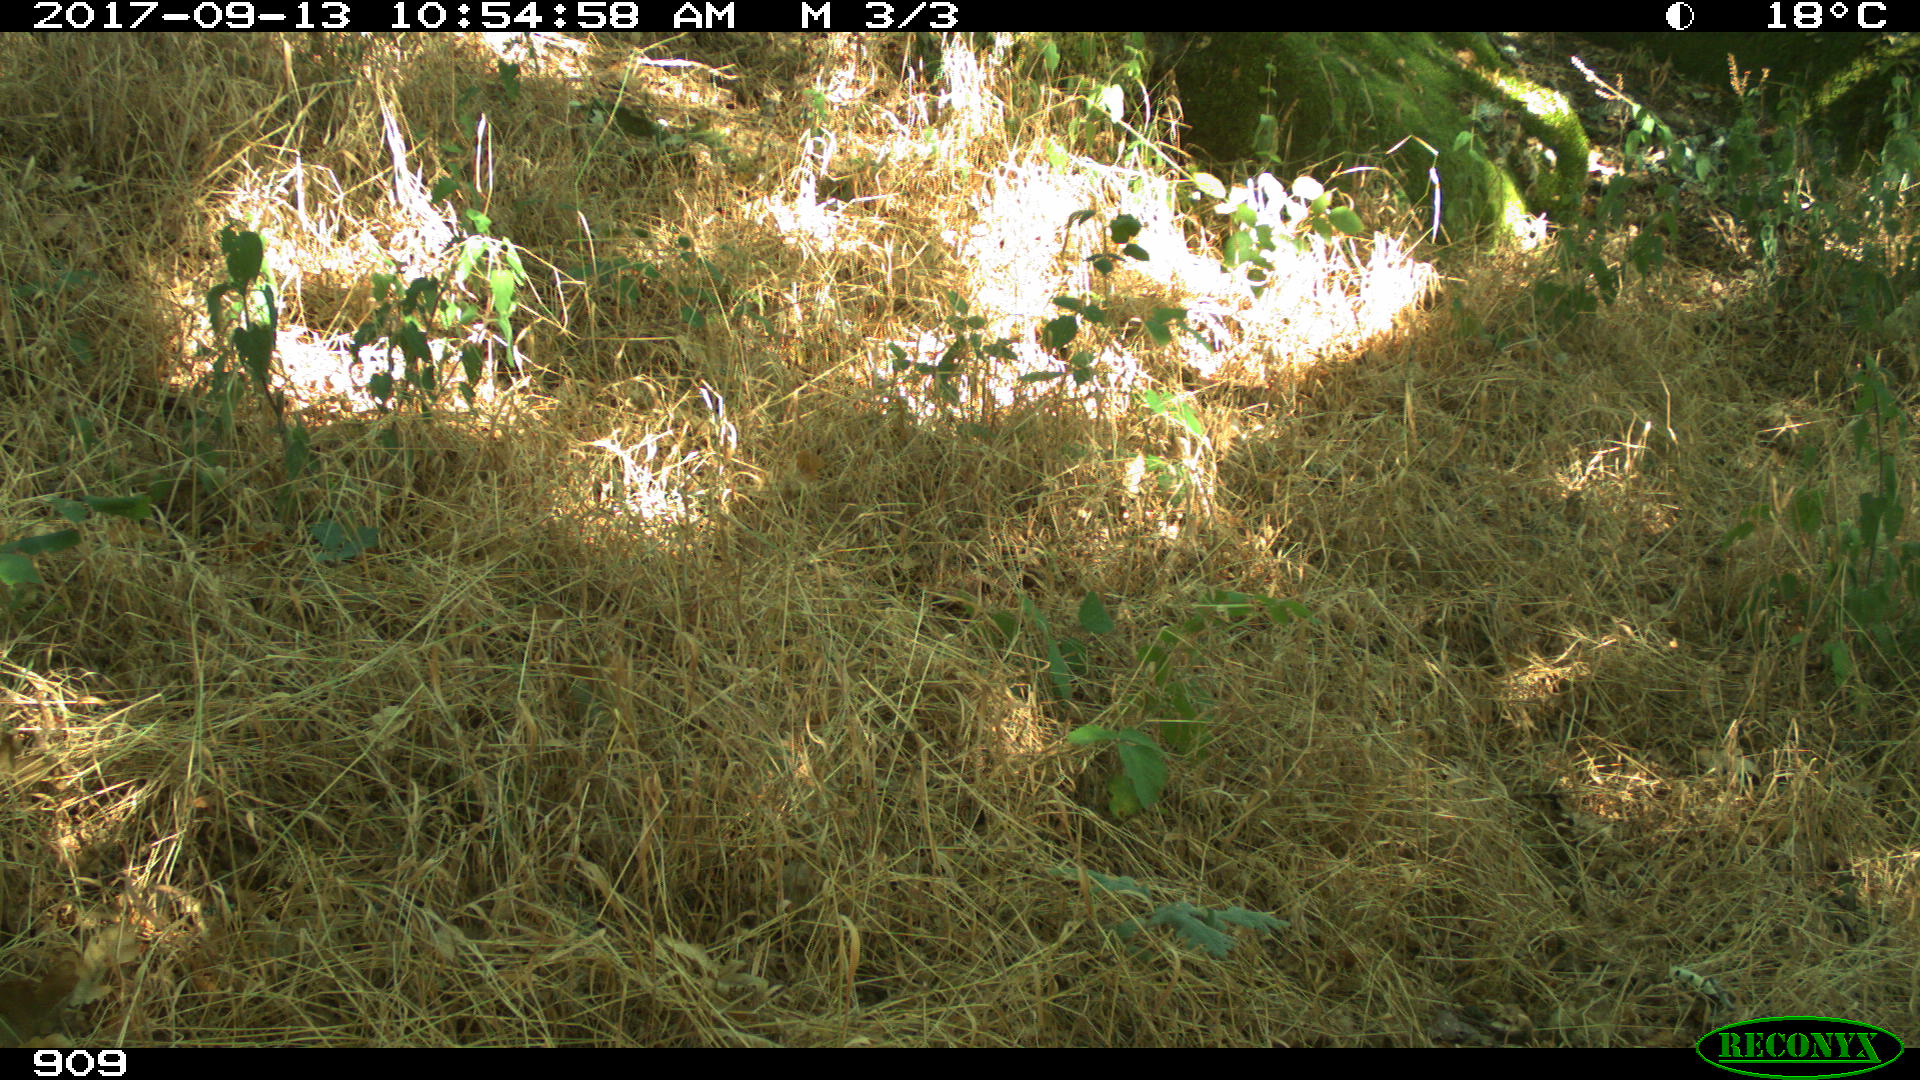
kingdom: Animalia
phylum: Chordata
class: Mammalia
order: Artiodactyla
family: Cervidae
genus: Capreolus
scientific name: Capreolus capreolus
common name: Western roe deer
